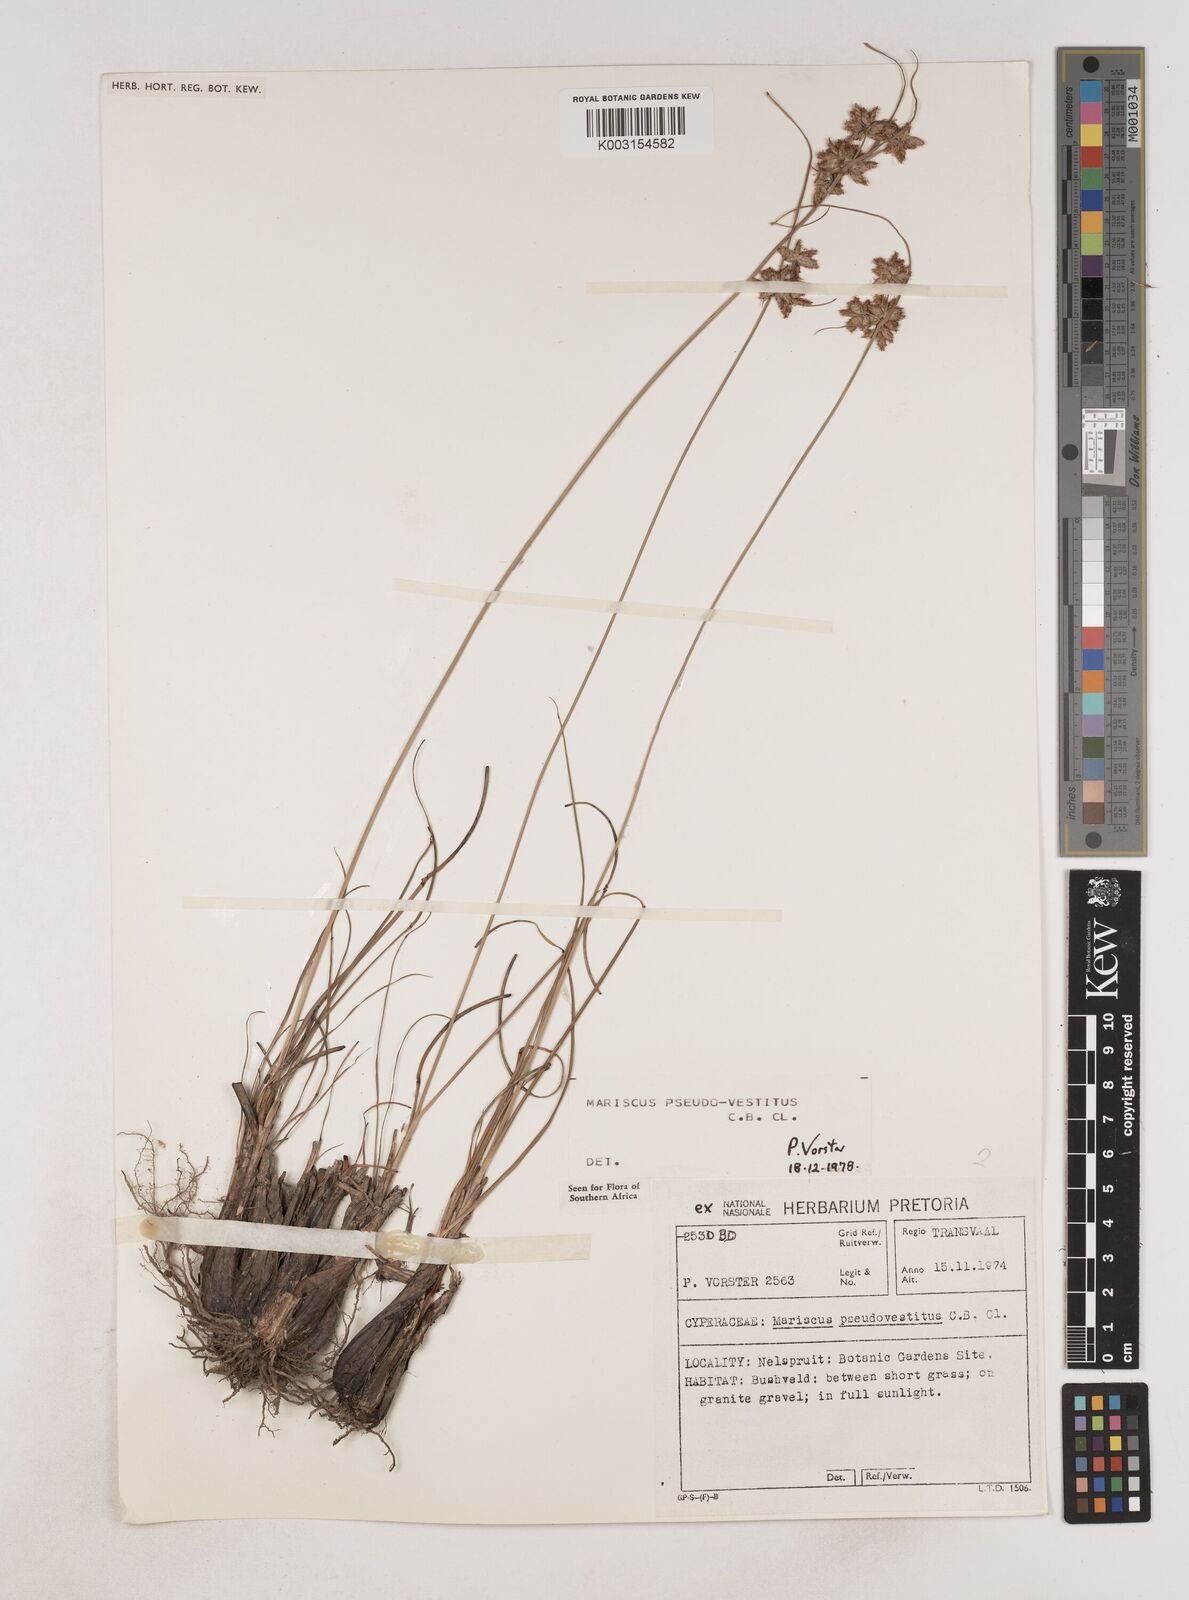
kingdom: Plantae
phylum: Tracheophyta
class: Liliopsida
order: Poales
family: Cyperaceae
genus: Cyperus
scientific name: Cyperus pseudovestitus
